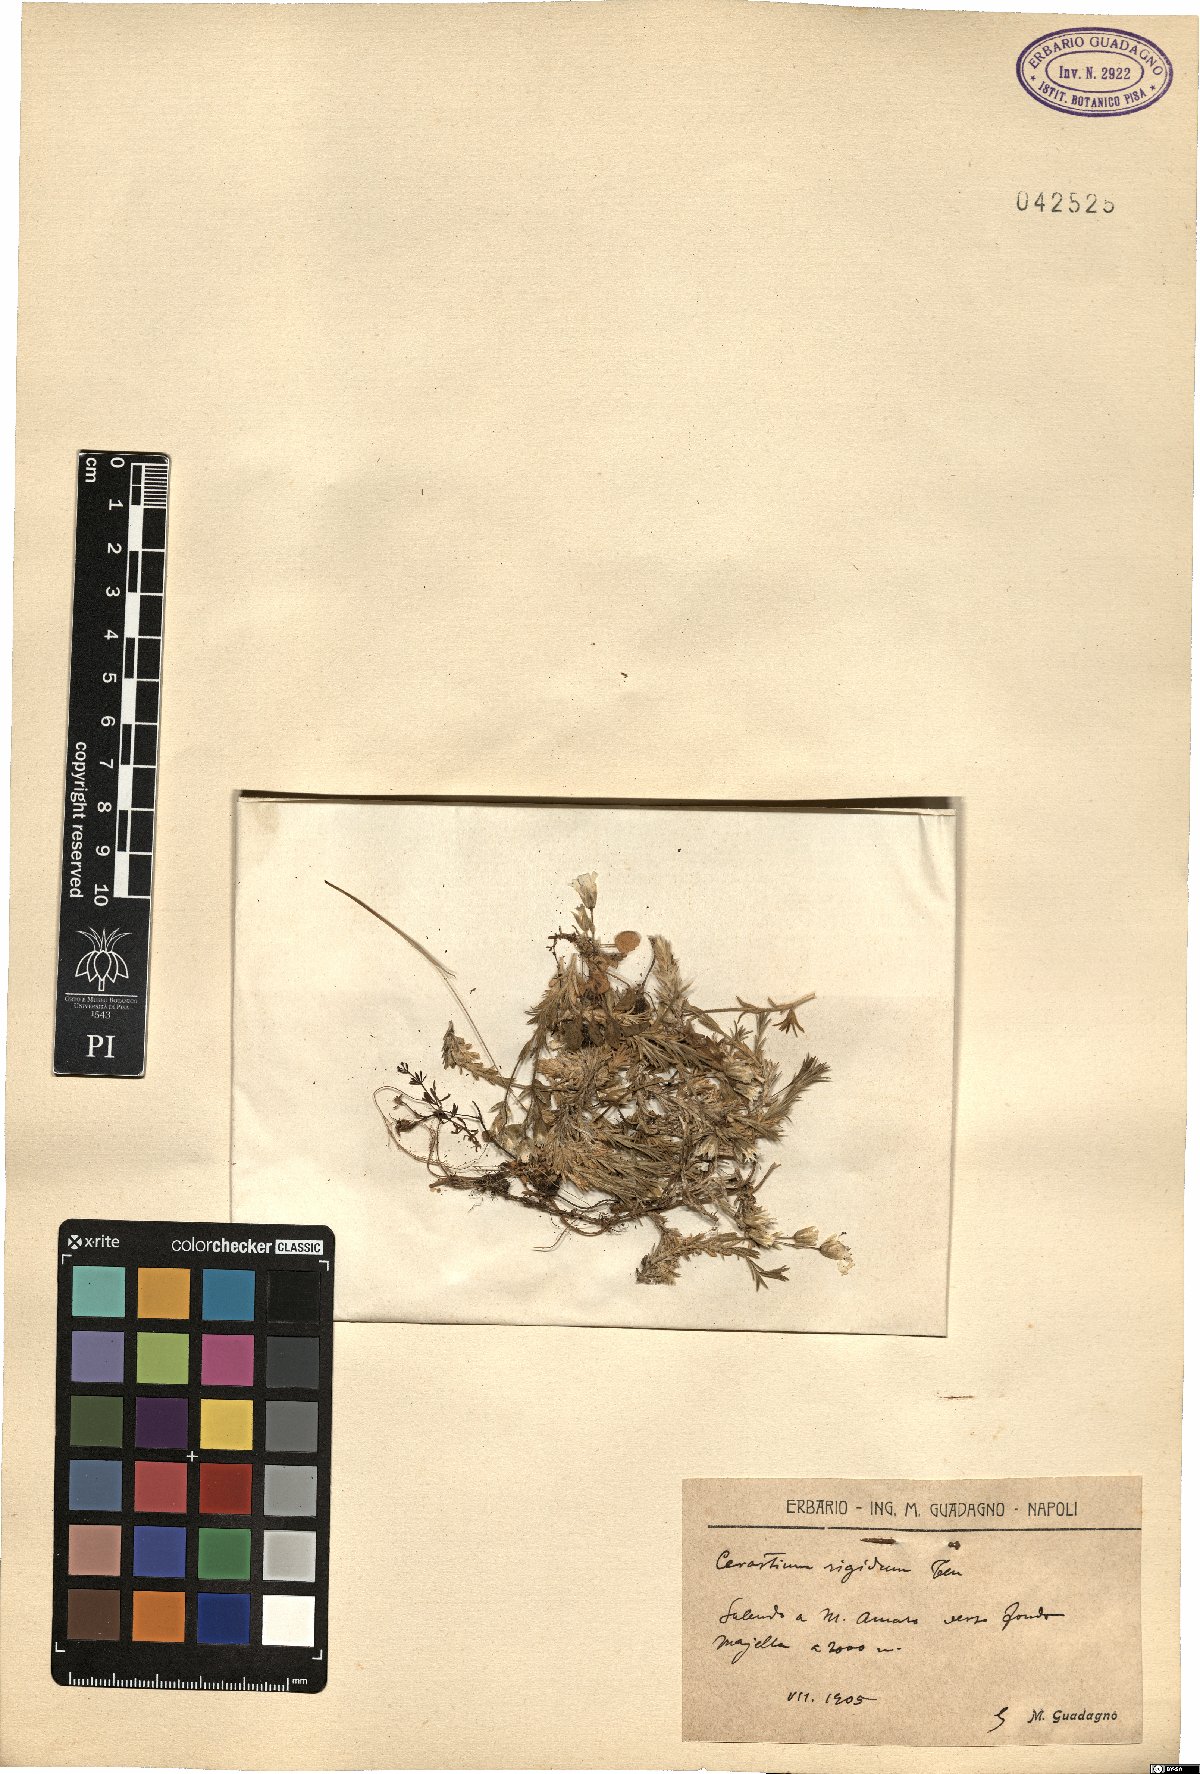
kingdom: Plantae
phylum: Tracheophyta
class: Magnoliopsida
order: Caryophyllales
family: Caryophyllaceae
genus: Cerastium
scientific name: Cerastium arvense
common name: Field mouse-ear
